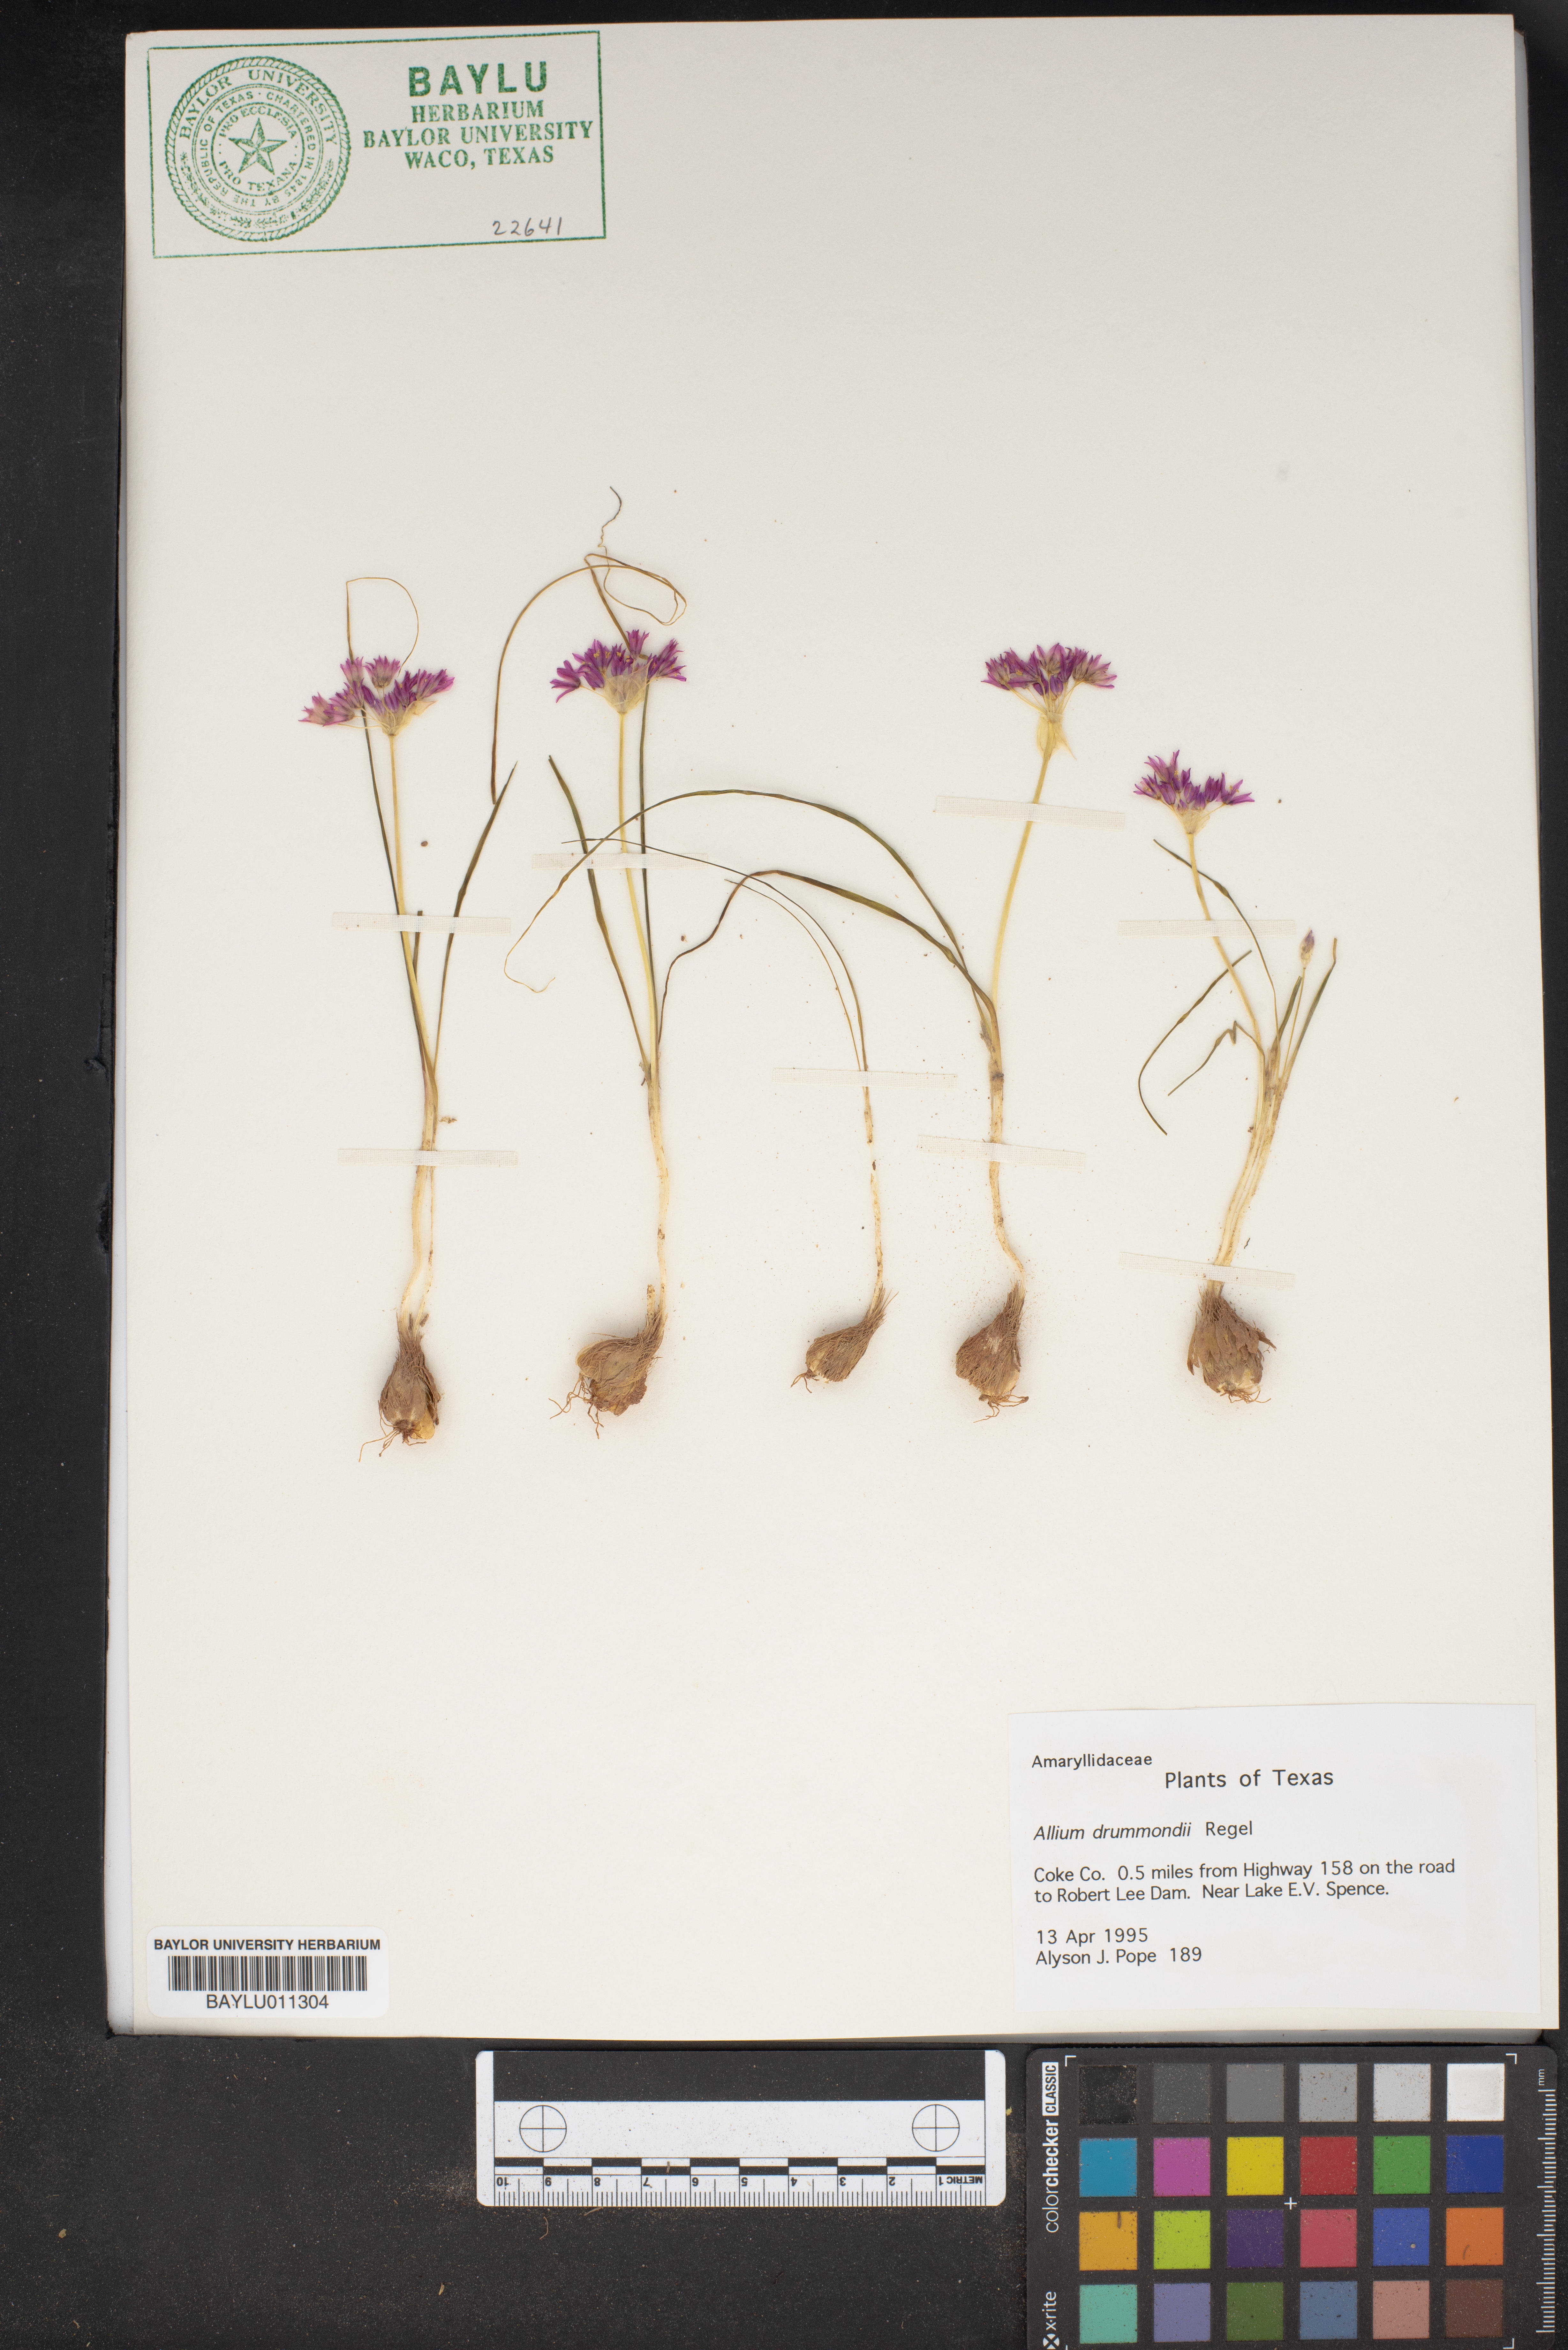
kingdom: Plantae
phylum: Tracheophyta
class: Liliopsida
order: Asparagales
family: Amaryllidaceae
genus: Allium
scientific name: Allium drummondii
